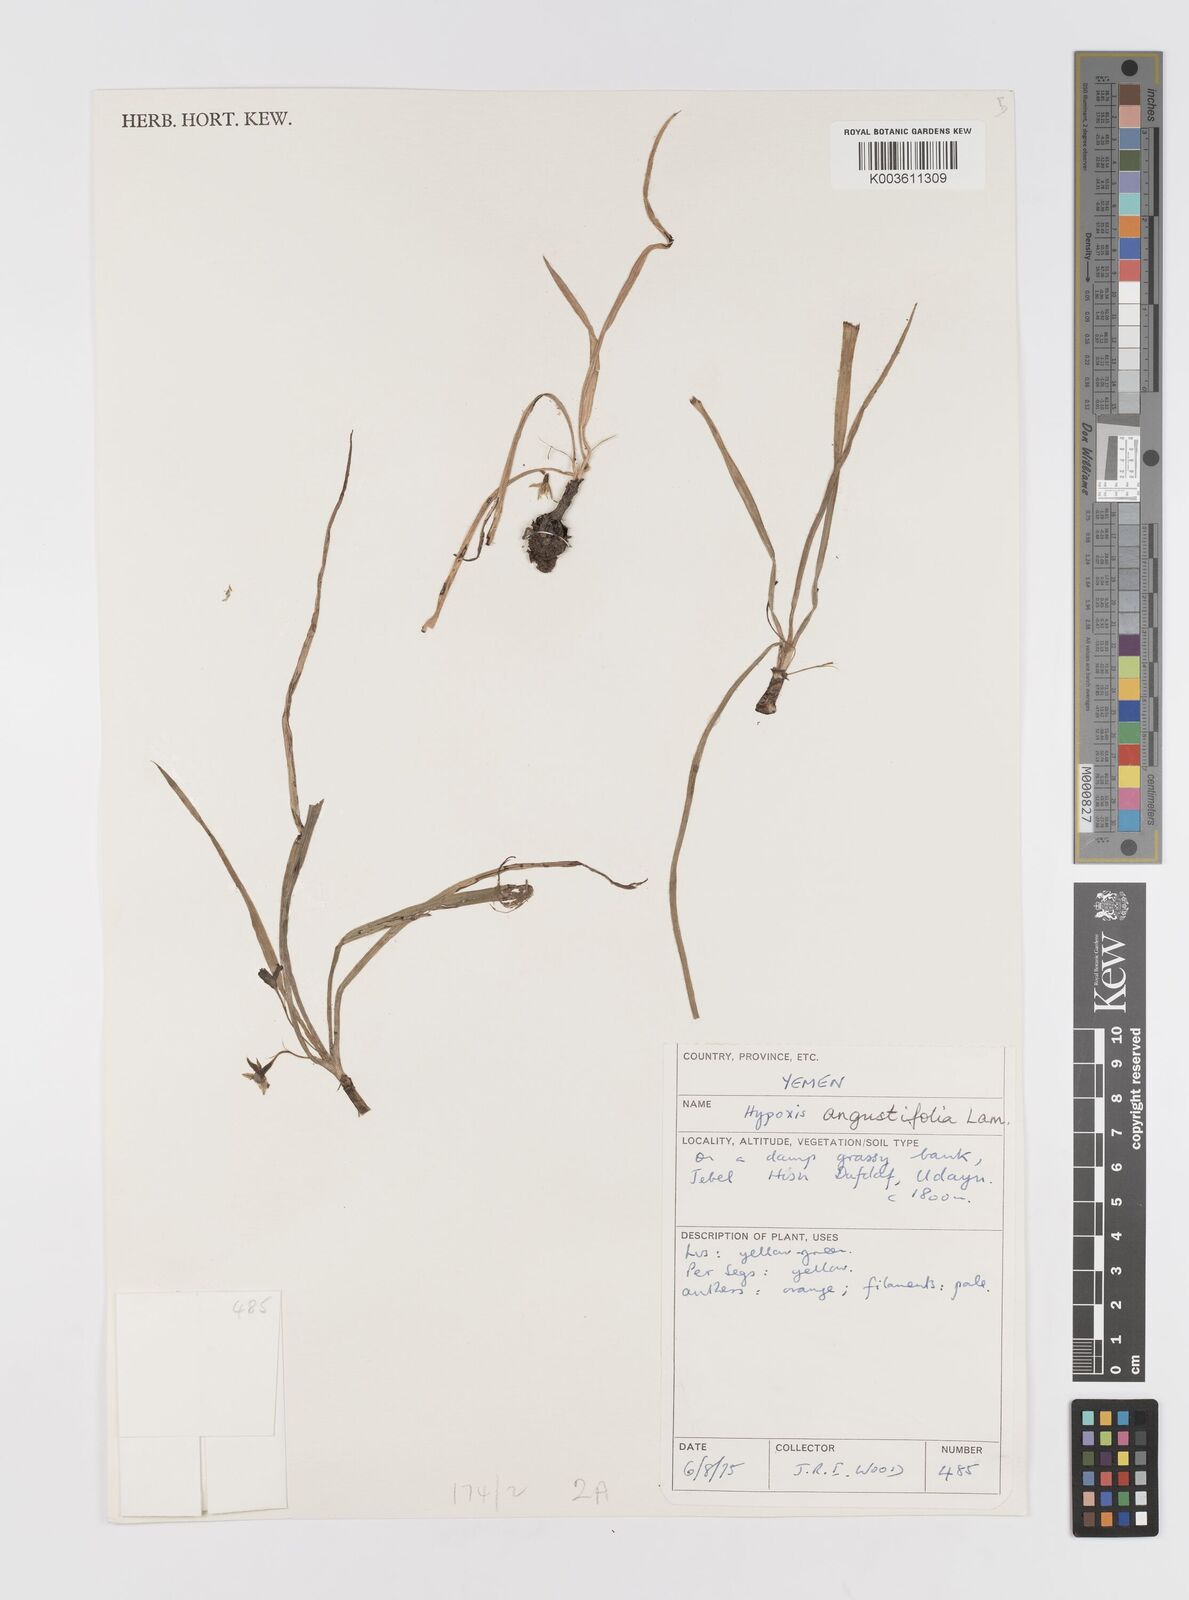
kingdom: Plantae
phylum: Tracheophyta
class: Liliopsida
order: Asparagales
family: Hypoxidaceae
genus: Hypoxis
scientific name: Hypoxis angustifolia
